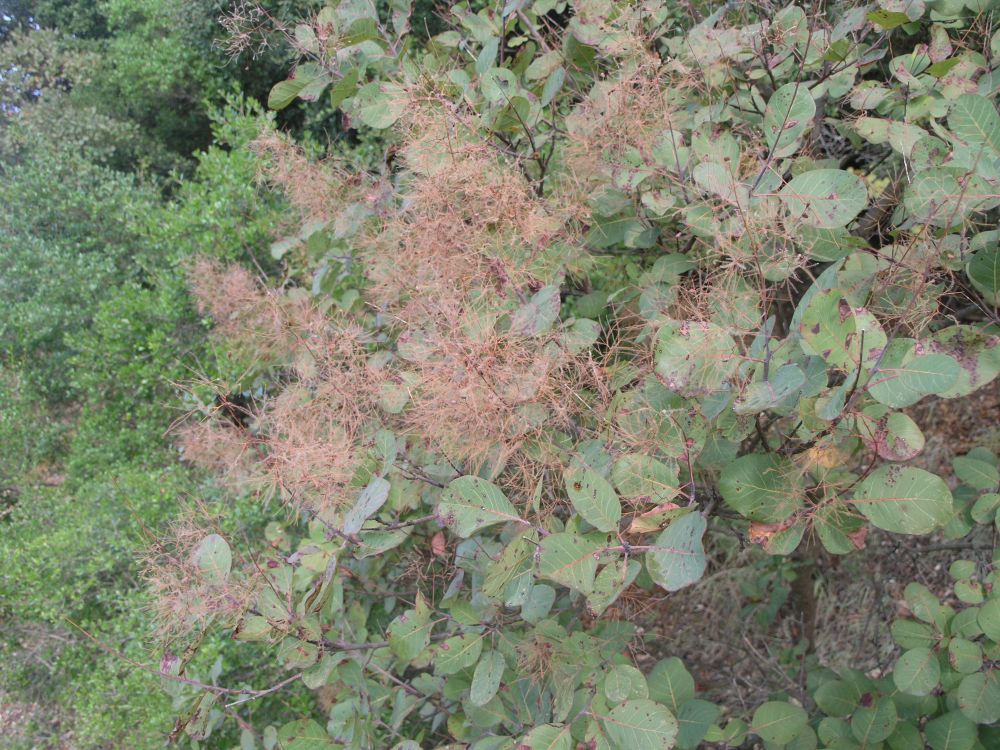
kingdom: Plantae
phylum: Tracheophyta
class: Magnoliopsida
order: Sapindales
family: Anacardiaceae
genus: Cotinus
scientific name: Cotinus coggygria
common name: Smoke-tree
